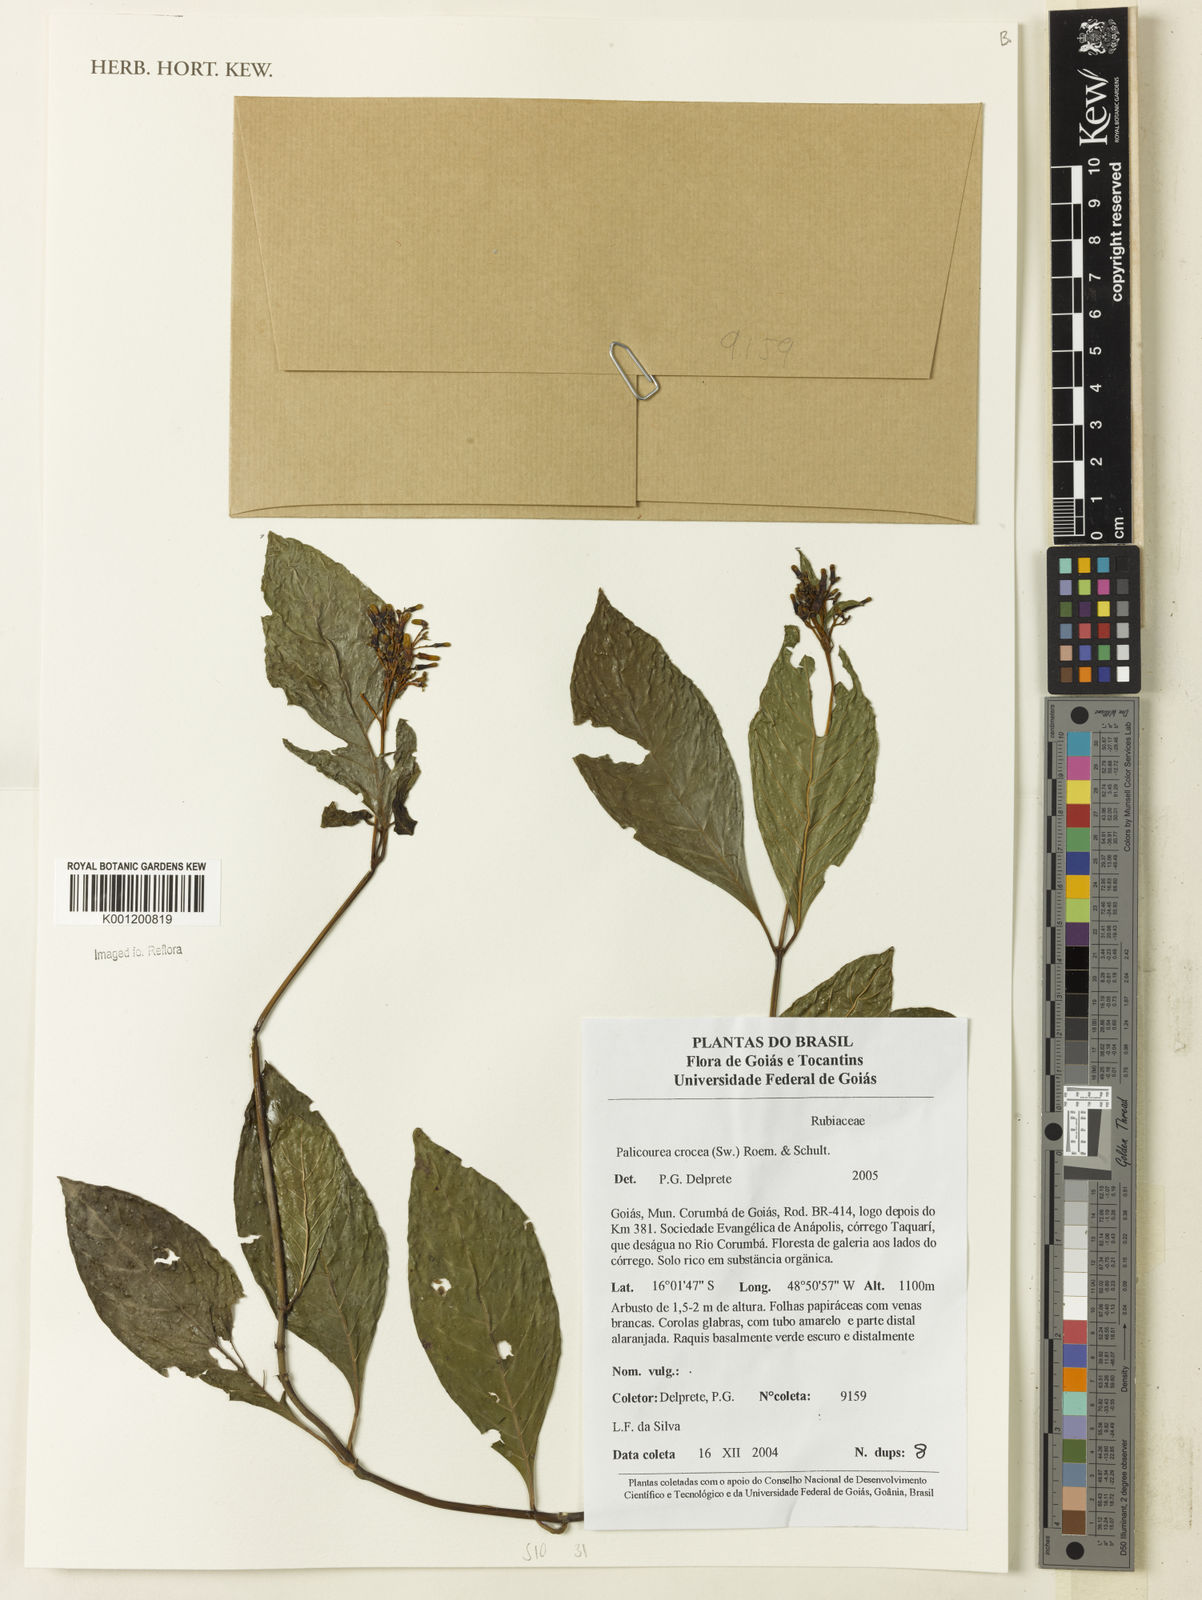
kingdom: Plantae
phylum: Tracheophyta
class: Magnoliopsida
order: Gentianales
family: Rubiaceae
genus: Palicourea
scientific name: Palicourea crocea
